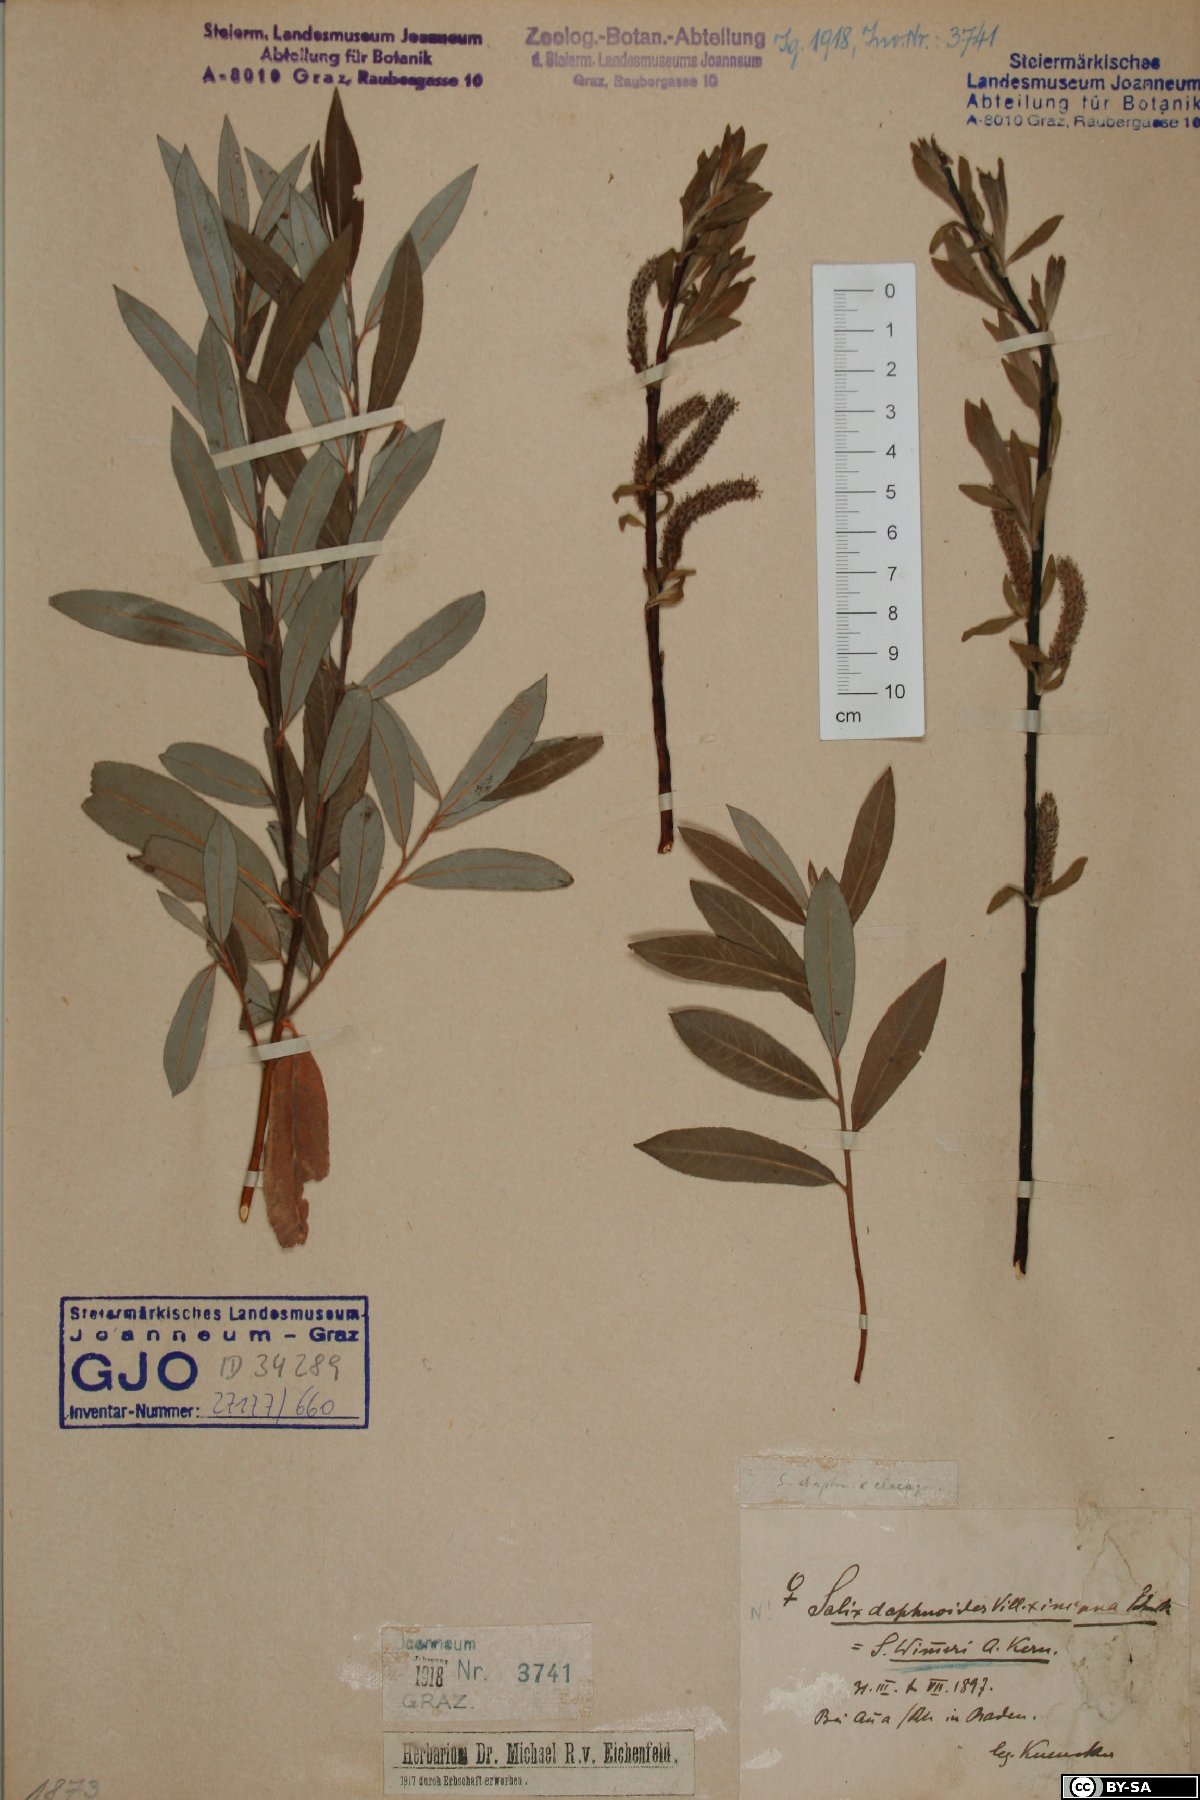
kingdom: Plantae
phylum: Tracheophyta
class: Magnoliopsida
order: Malpighiales
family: Salicaceae
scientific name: Salicaceae
